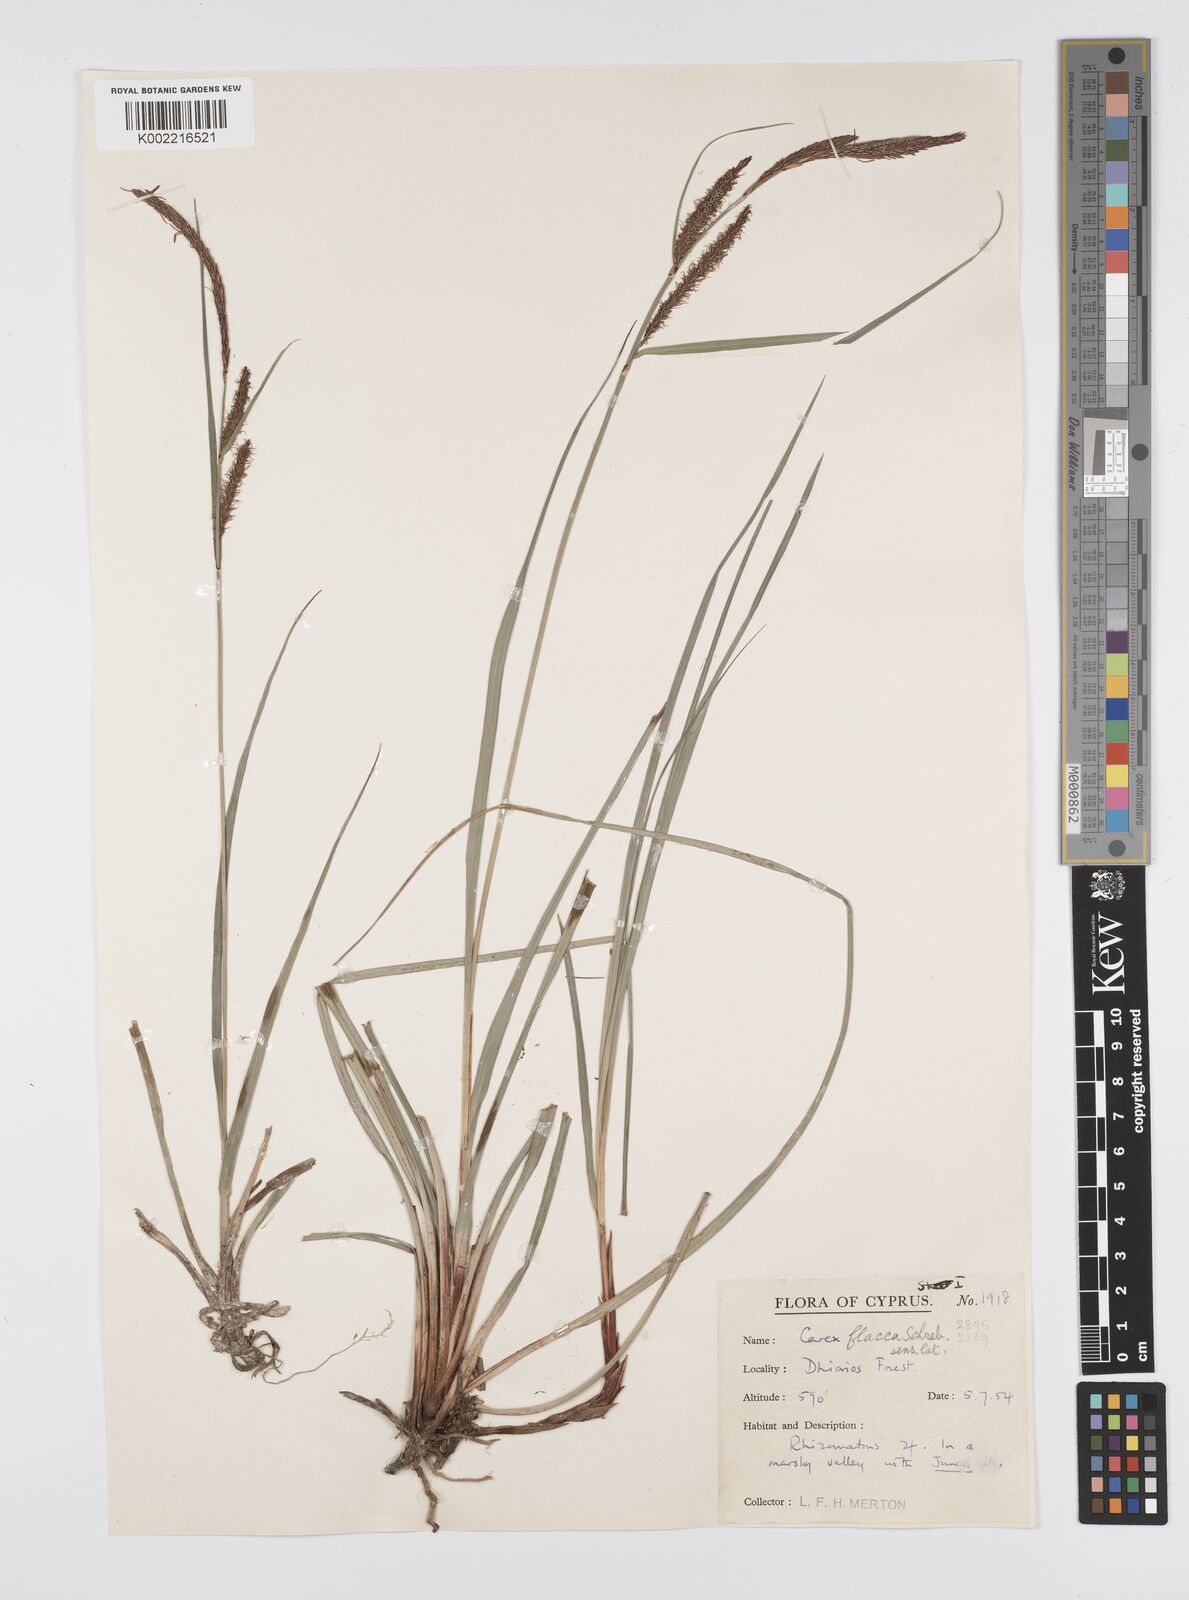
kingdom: Plantae
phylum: Tracheophyta
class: Liliopsida
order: Poales
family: Cyperaceae
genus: Carex
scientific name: Carex flacca
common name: Glaucous sedge
